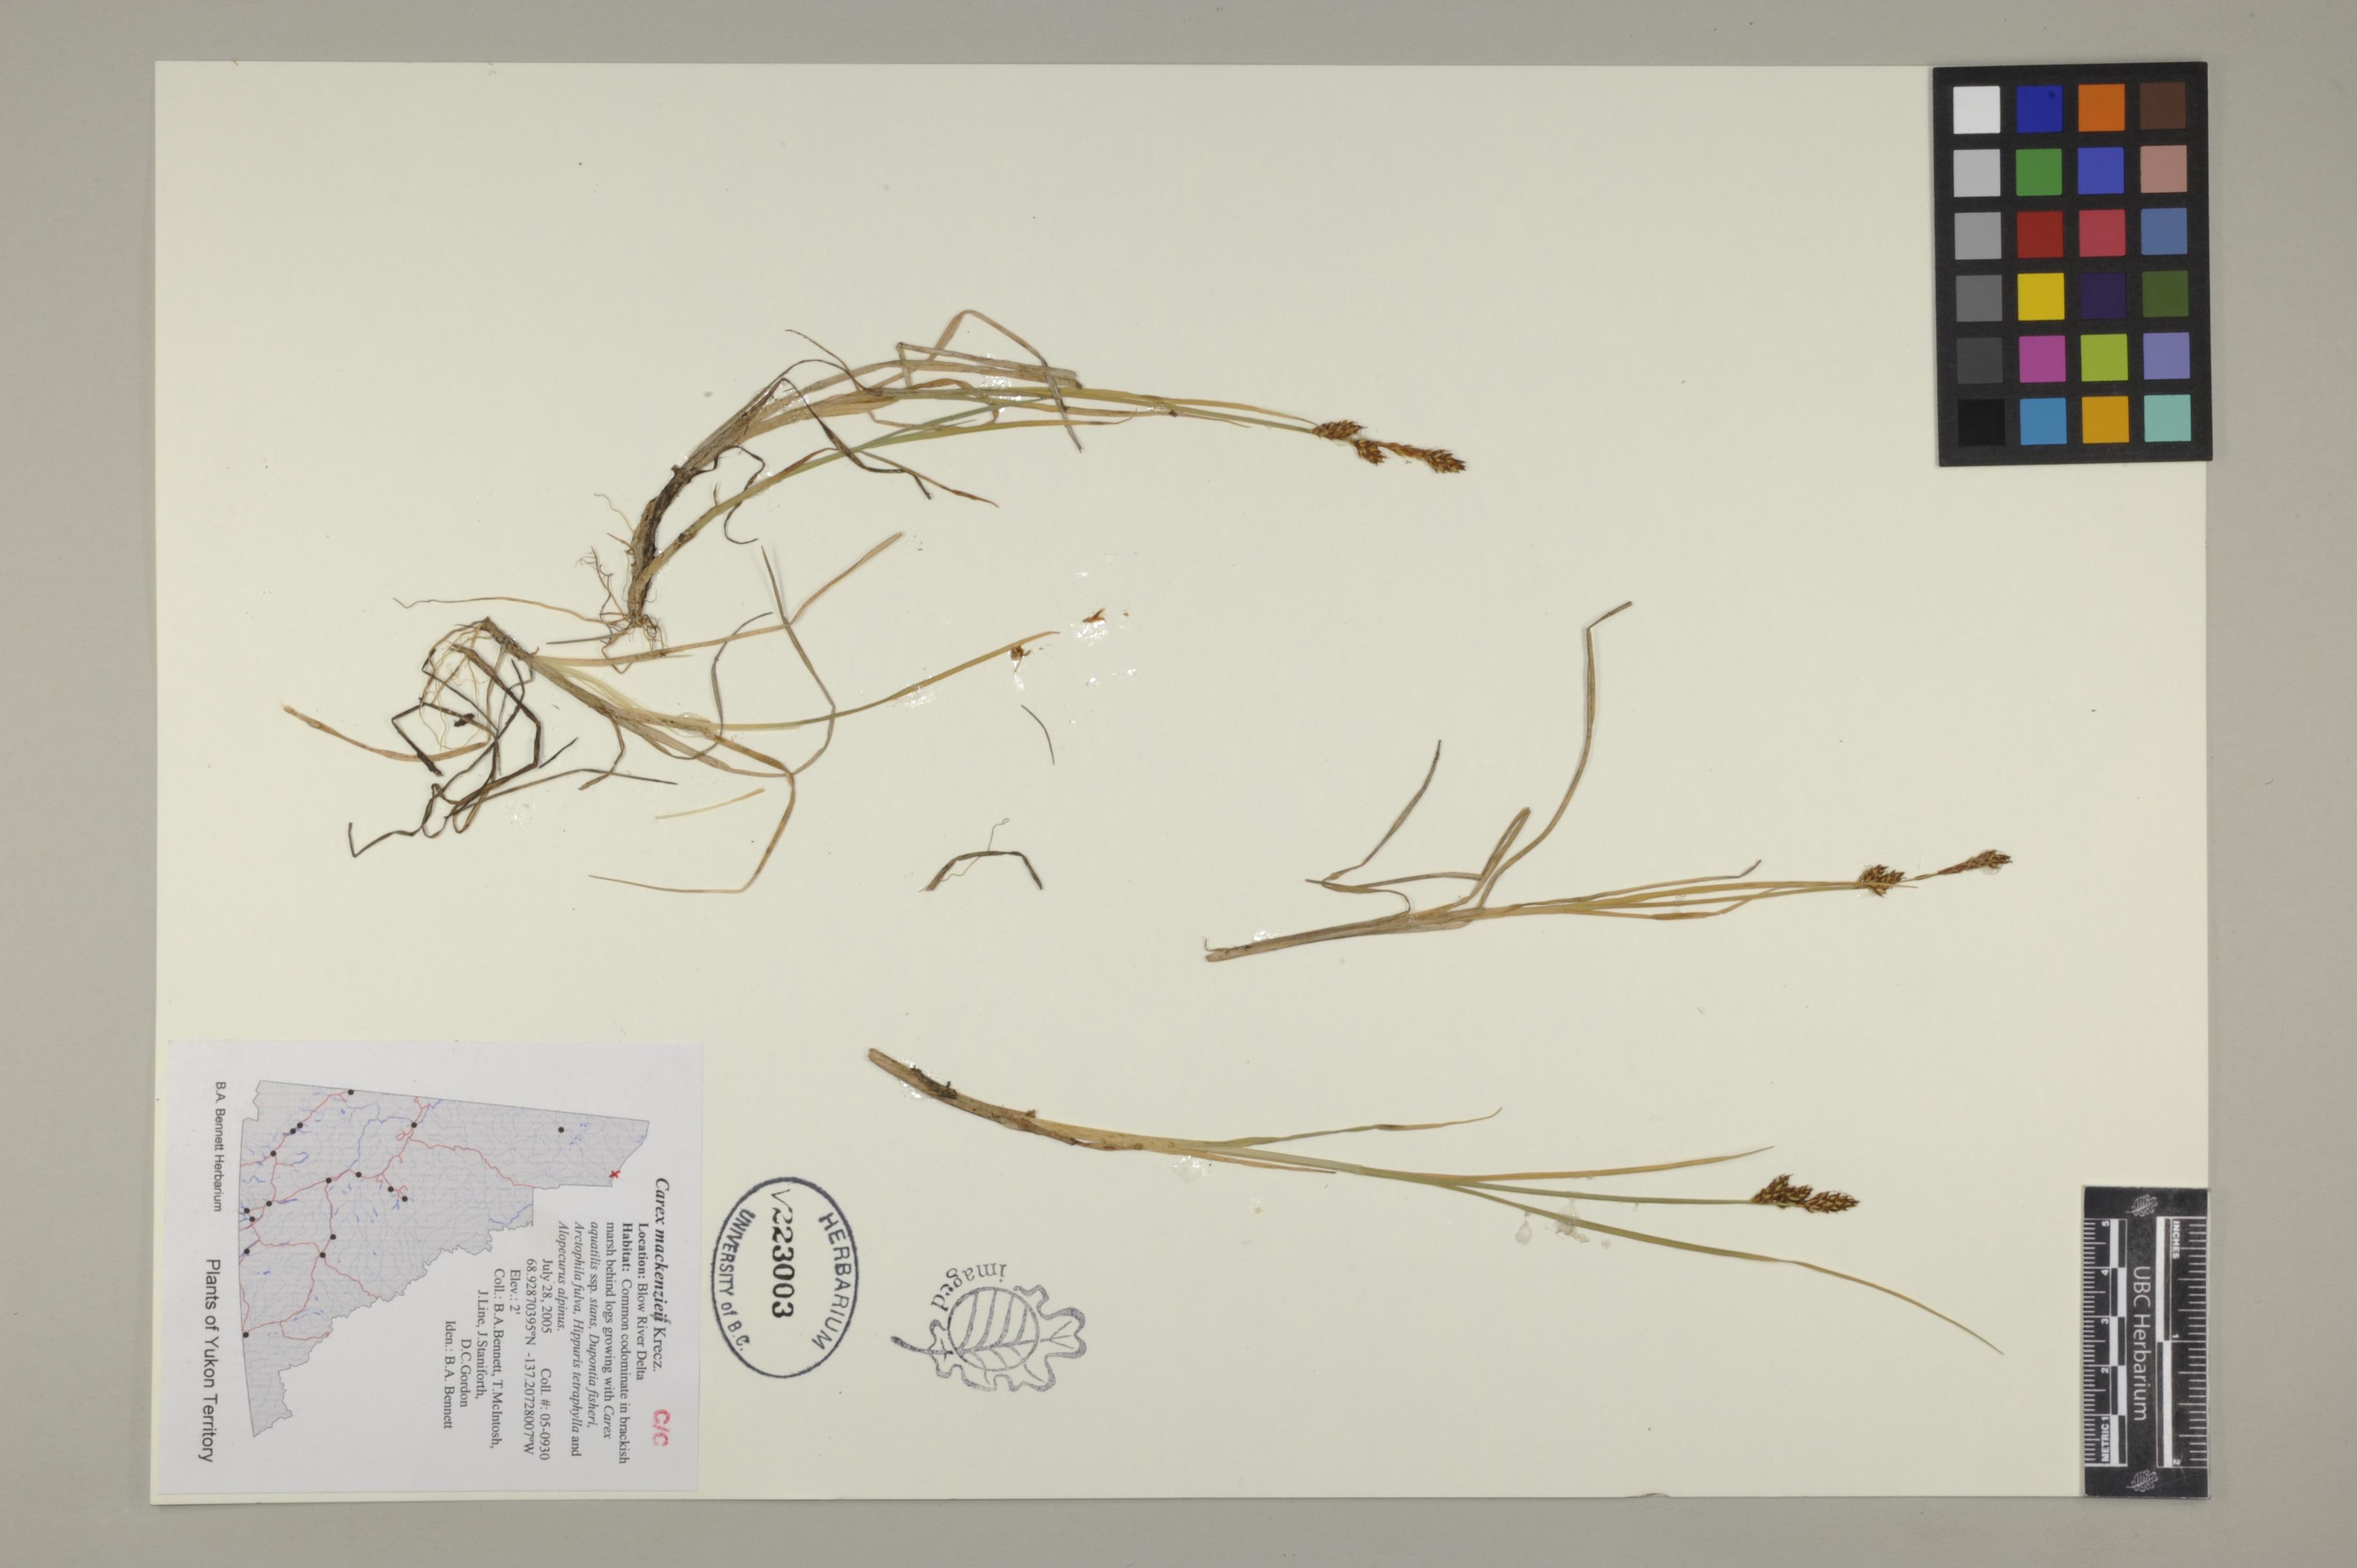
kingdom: Plantae
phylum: Tracheophyta
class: Liliopsida
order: Poales
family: Cyperaceae
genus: Carex
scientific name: Carex mackenziei
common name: Mackenzie's sedge
